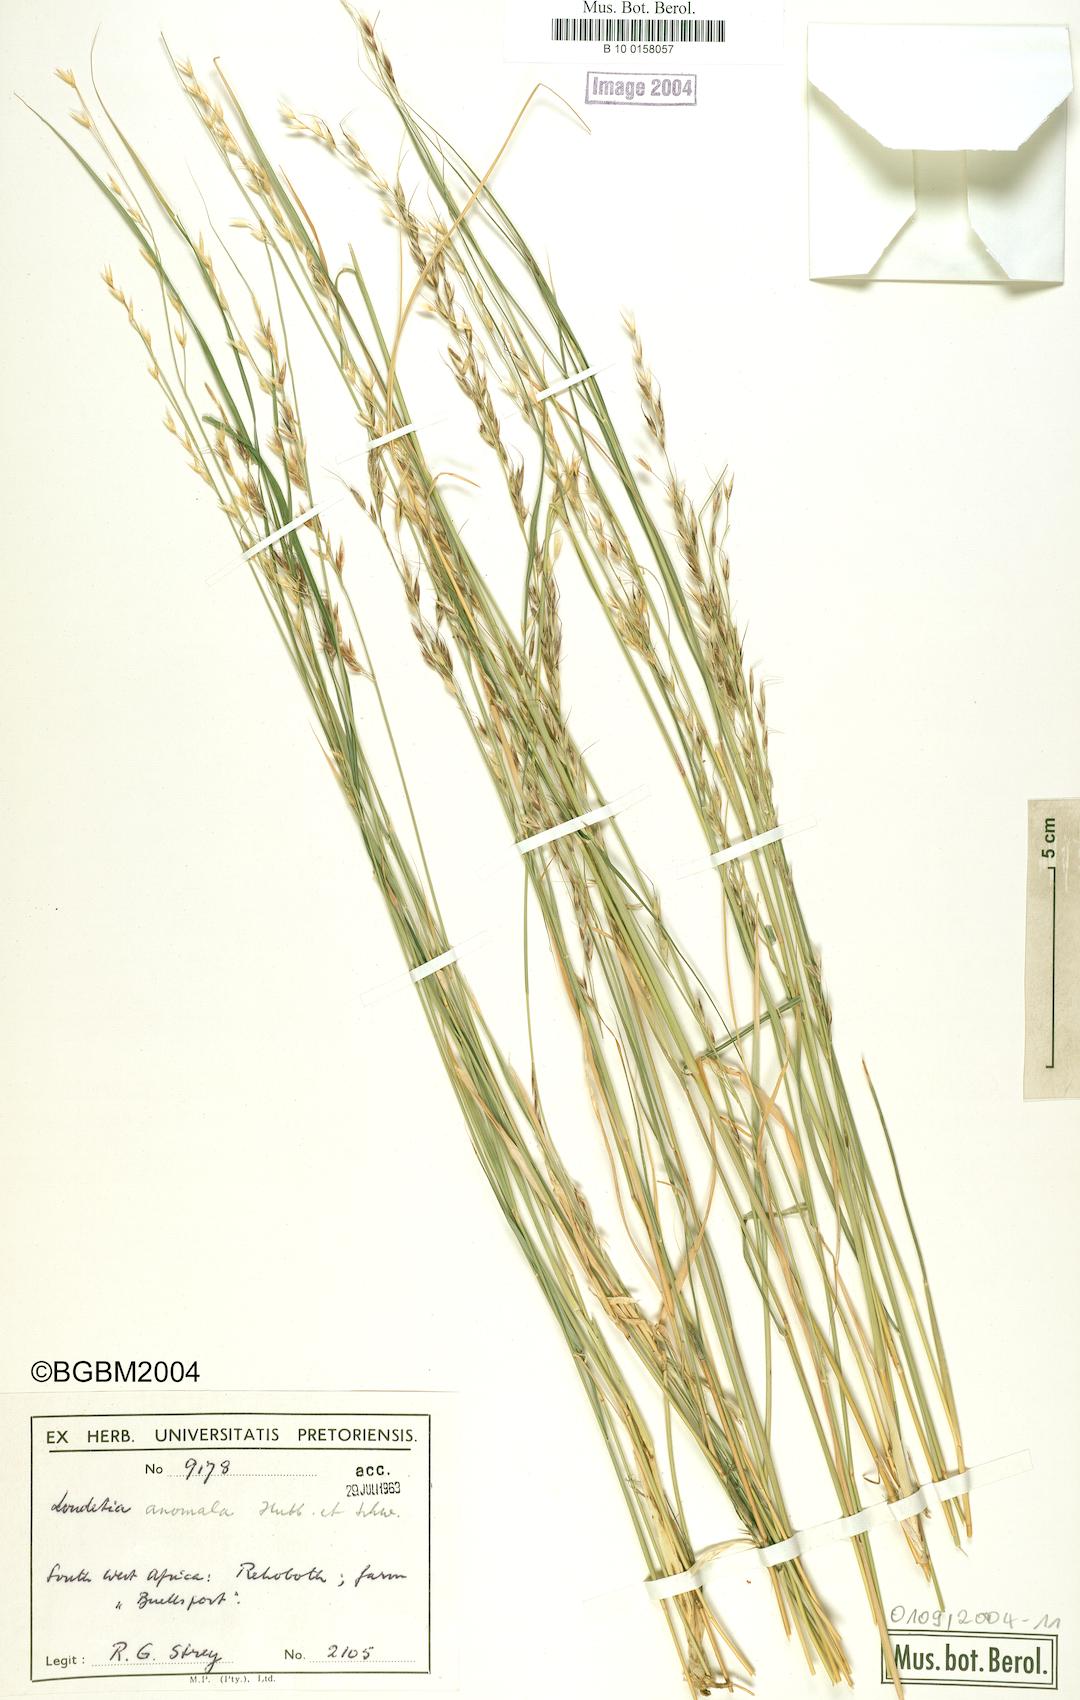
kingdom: Plantae
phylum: Tracheophyta
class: Liliopsida
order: Poales
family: Poaceae
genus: Danthoniopsis
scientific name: Danthoniopsis ramosa
